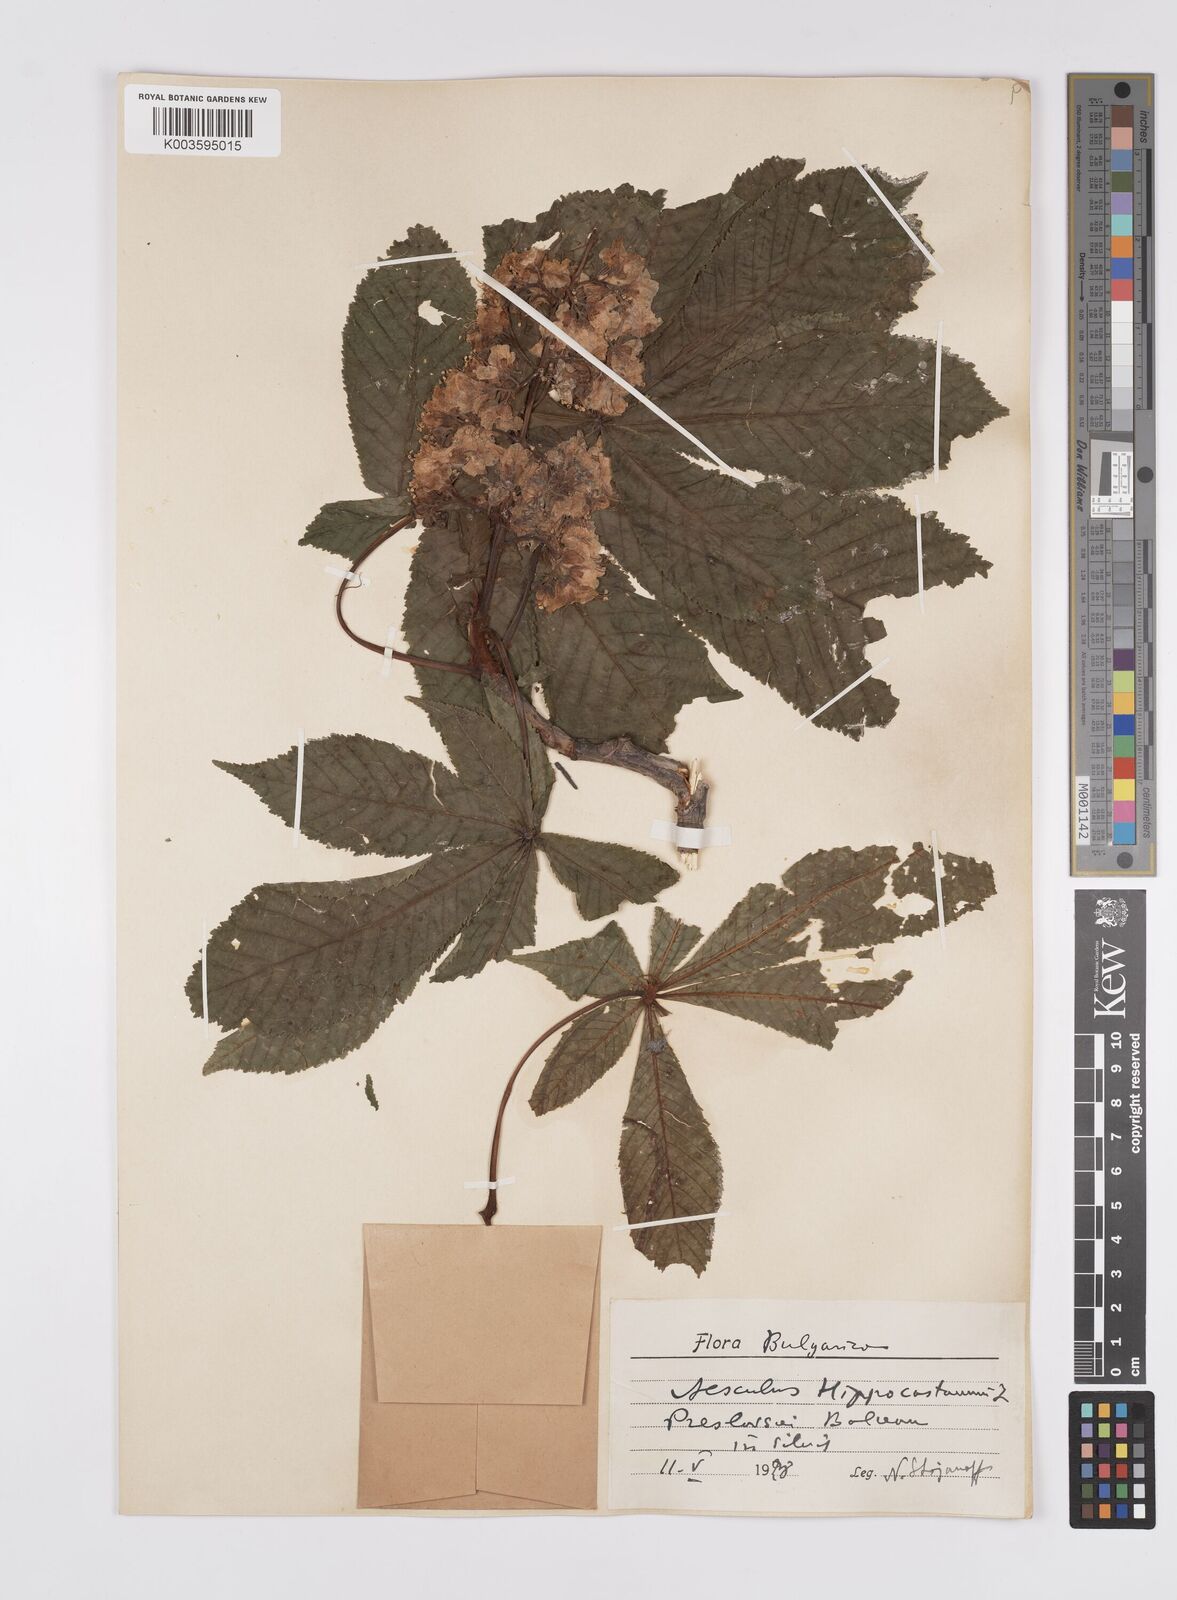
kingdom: Plantae
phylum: Tracheophyta
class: Magnoliopsida
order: Sapindales
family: Sapindaceae
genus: Aesculus
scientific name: Aesculus hippocastanum
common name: Horse-chestnut
